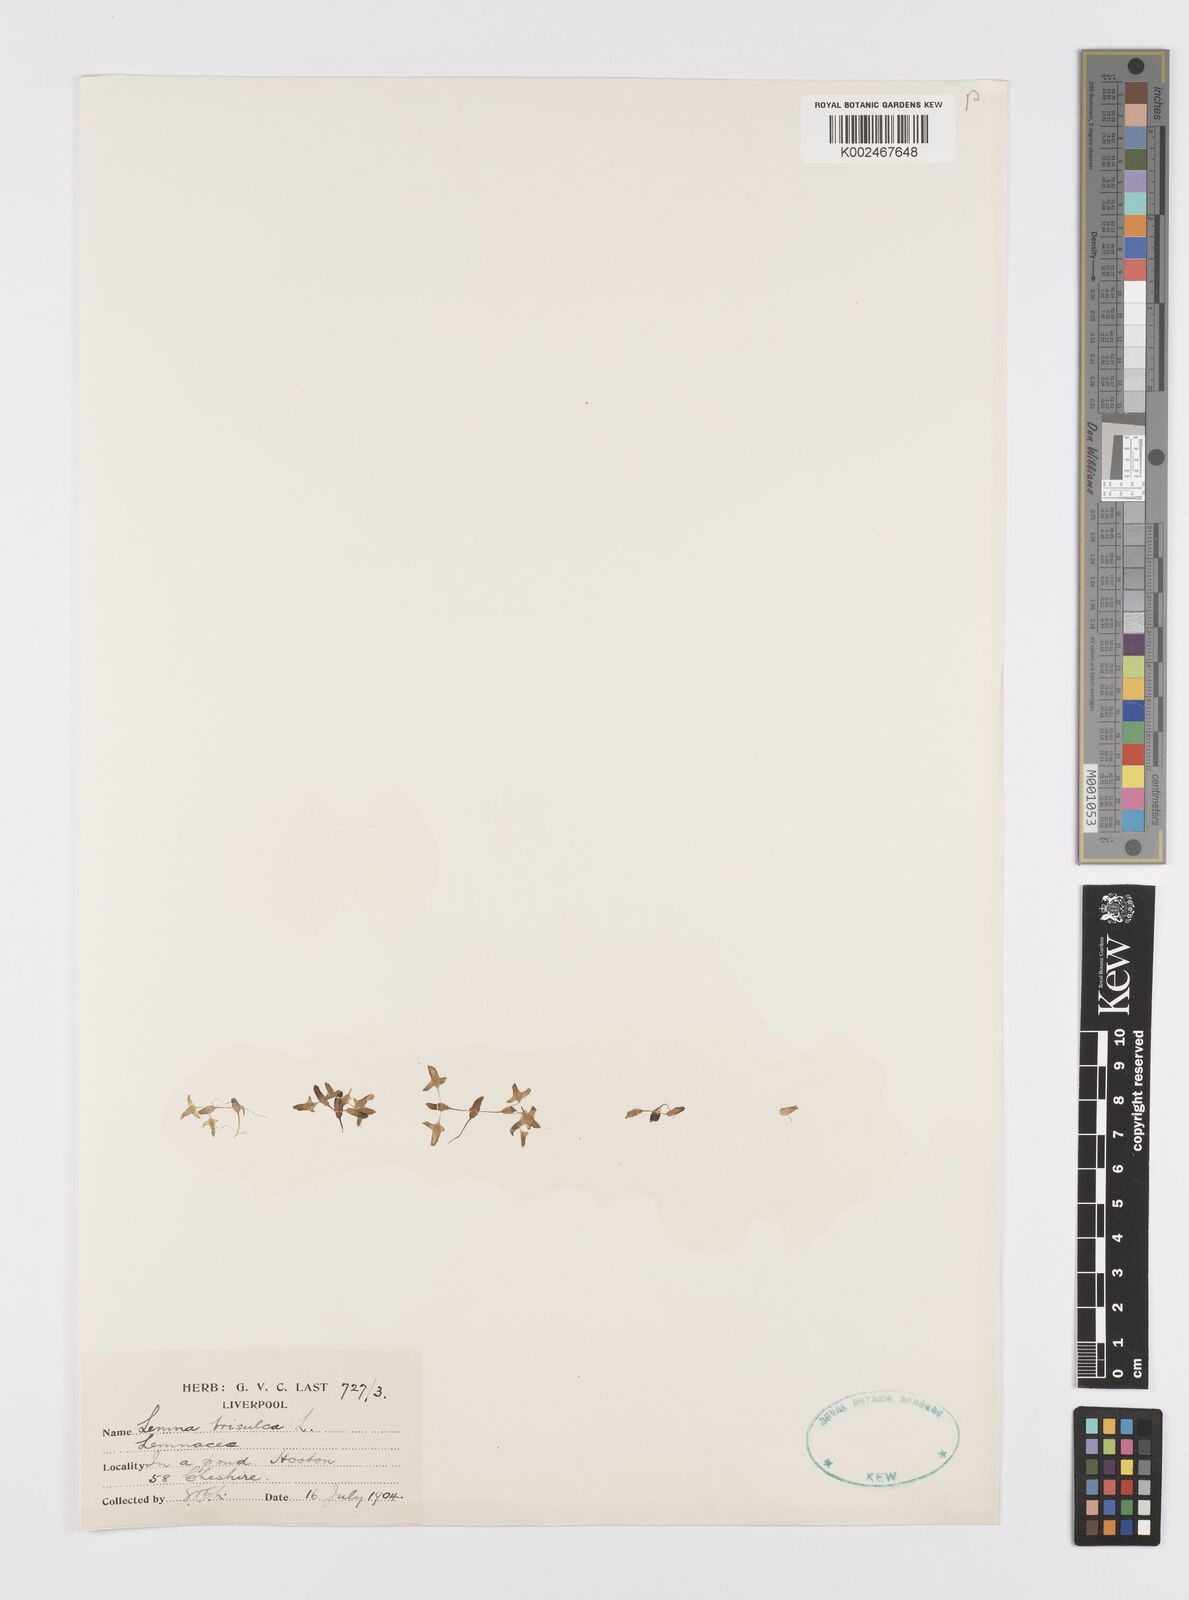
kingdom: Plantae
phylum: Tracheophyta
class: Liliopsida
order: Alismatales
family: Araceae
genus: Lemna
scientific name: Lemna trisulca
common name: Ivy-leaved duckweed
